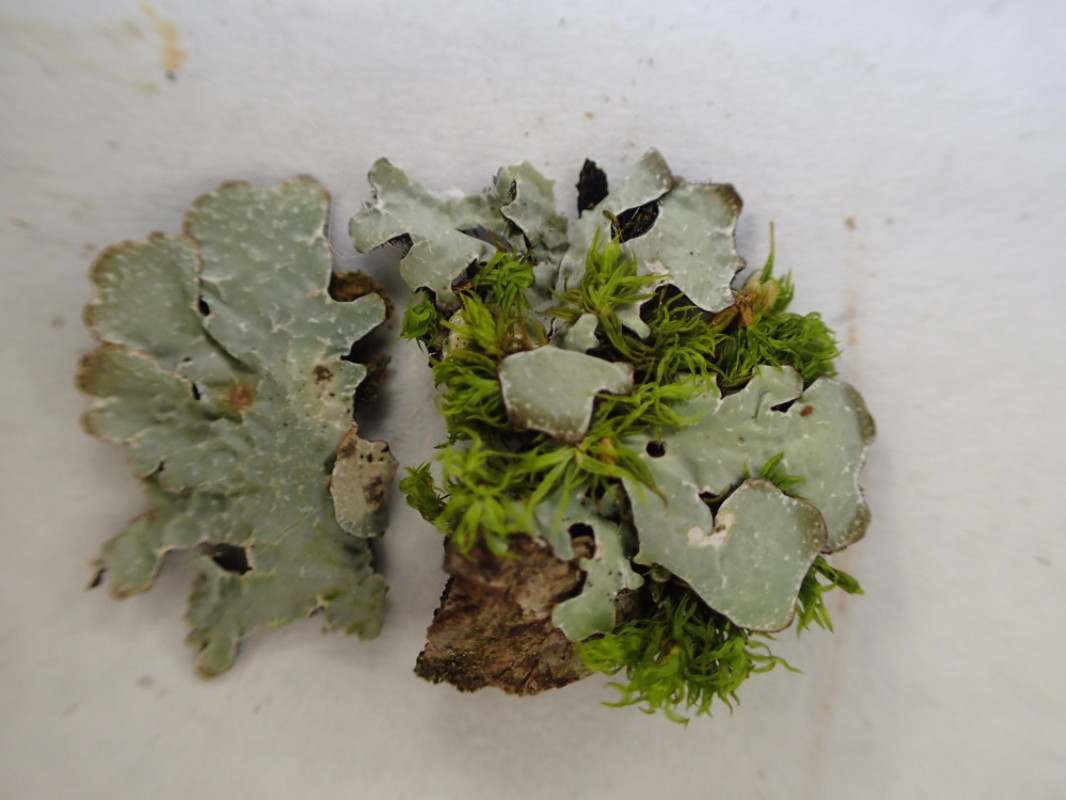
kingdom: Fungi
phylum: Ascomycota
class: Lecanoromycetes
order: Lecanorales
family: Parmeliaceae
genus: Parmelia
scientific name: Parmelia sulcata
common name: rynket skållav
